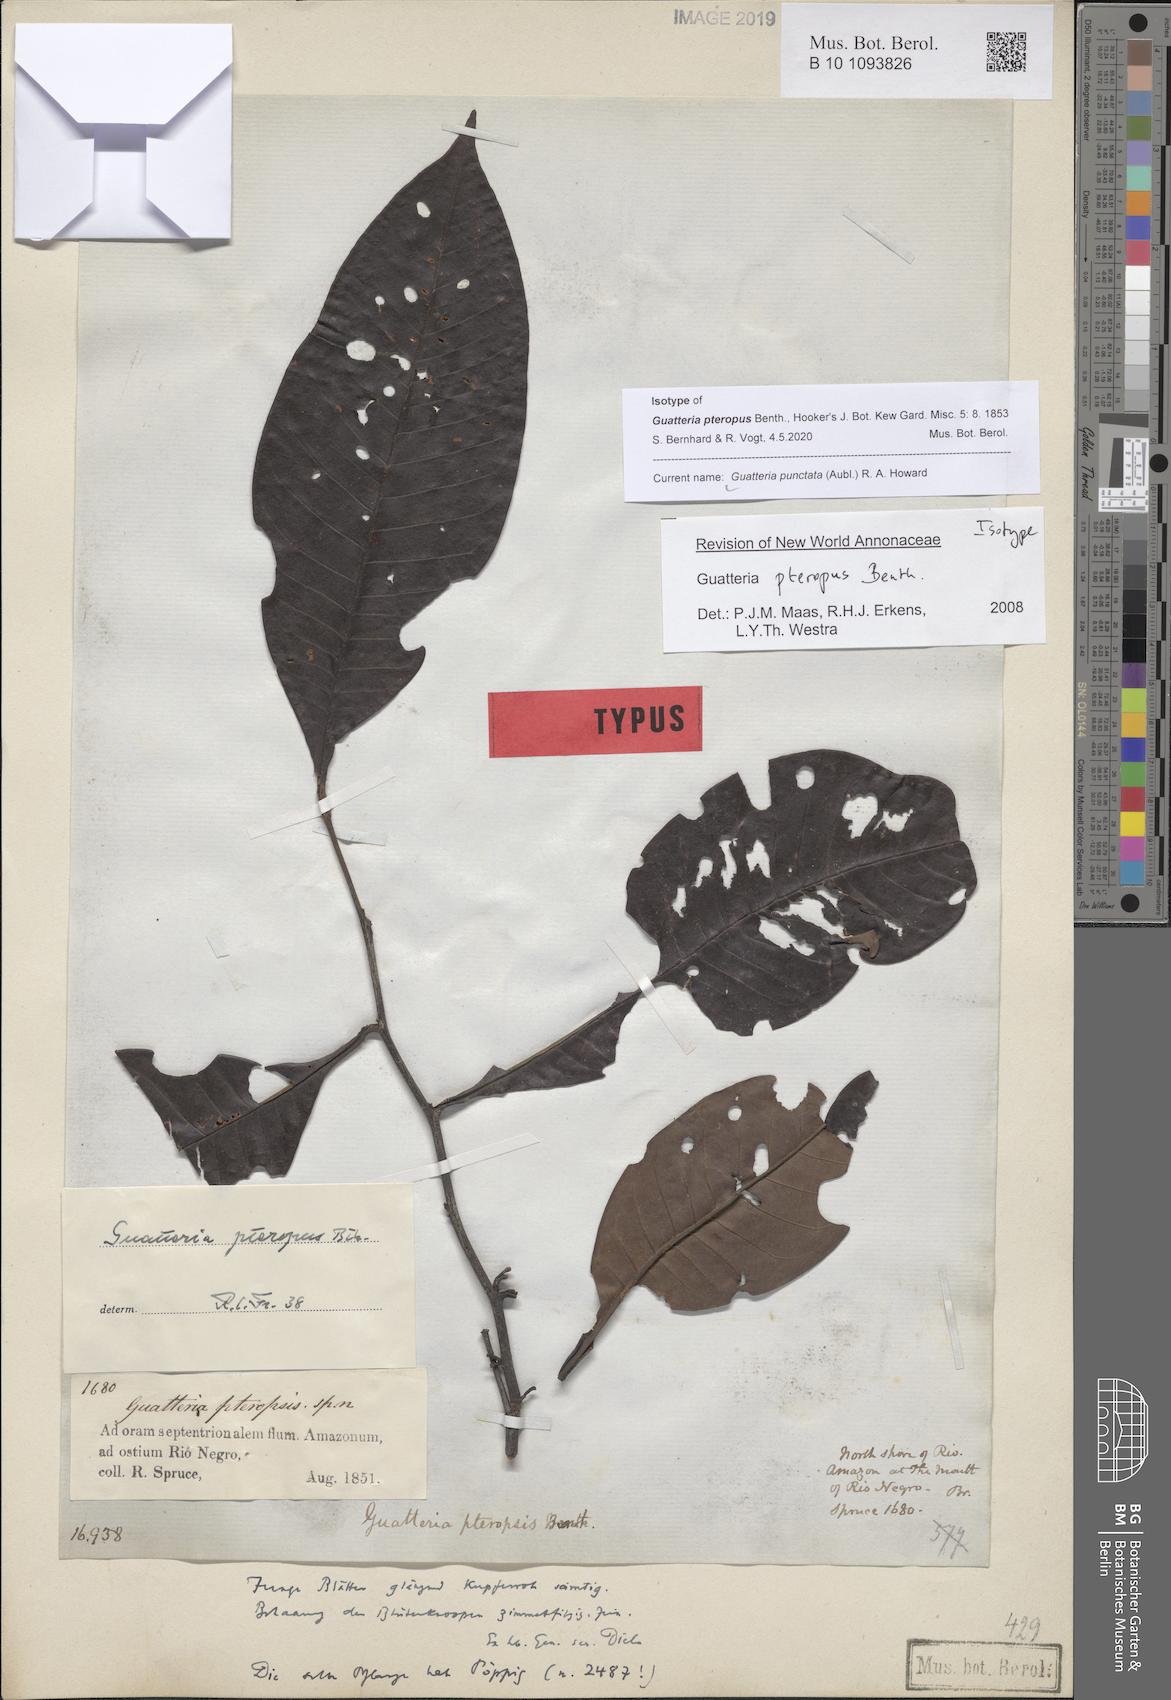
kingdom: Plantae
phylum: Tracheophyta
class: Magnoliopsida
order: Magnoliales
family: Annonaceae
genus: Guatteria
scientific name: Guatteria punctata
